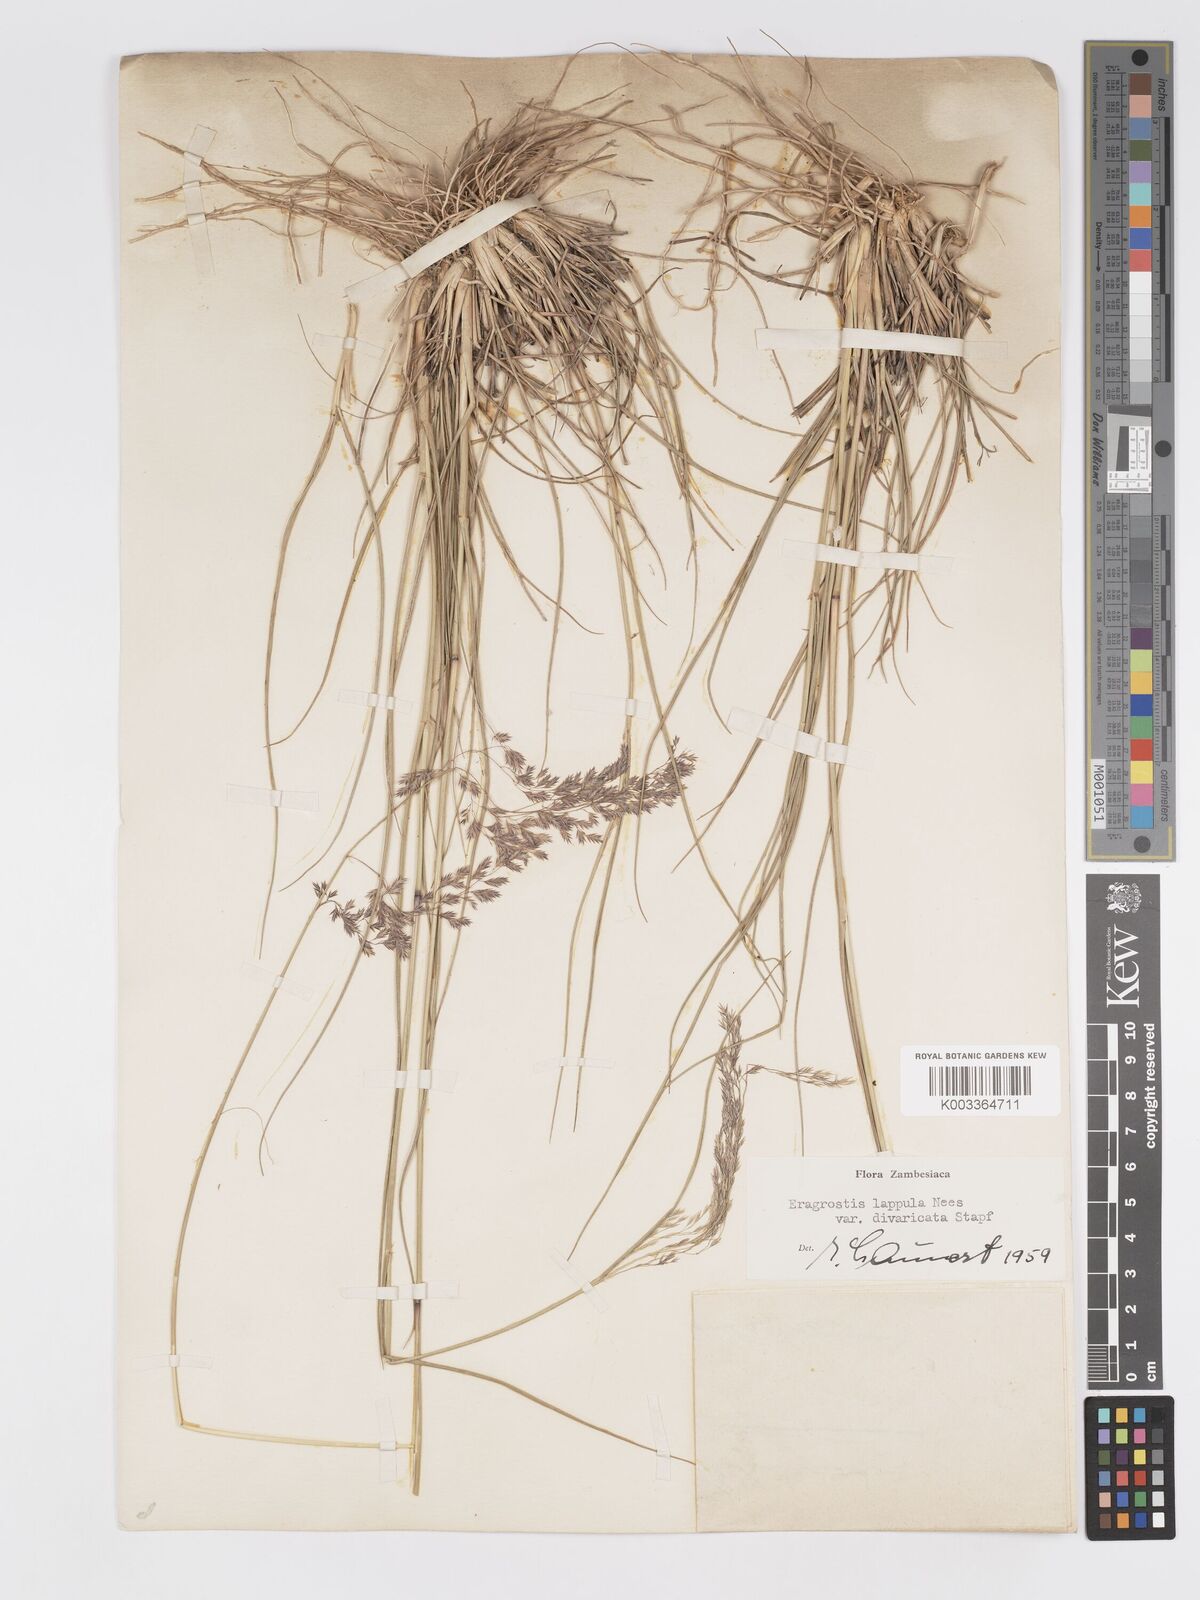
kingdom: Plantae
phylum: Tracheophyta
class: Liliopsida
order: Poales
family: Poaceae
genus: Eragrostis
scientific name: Eragrostis lappula
